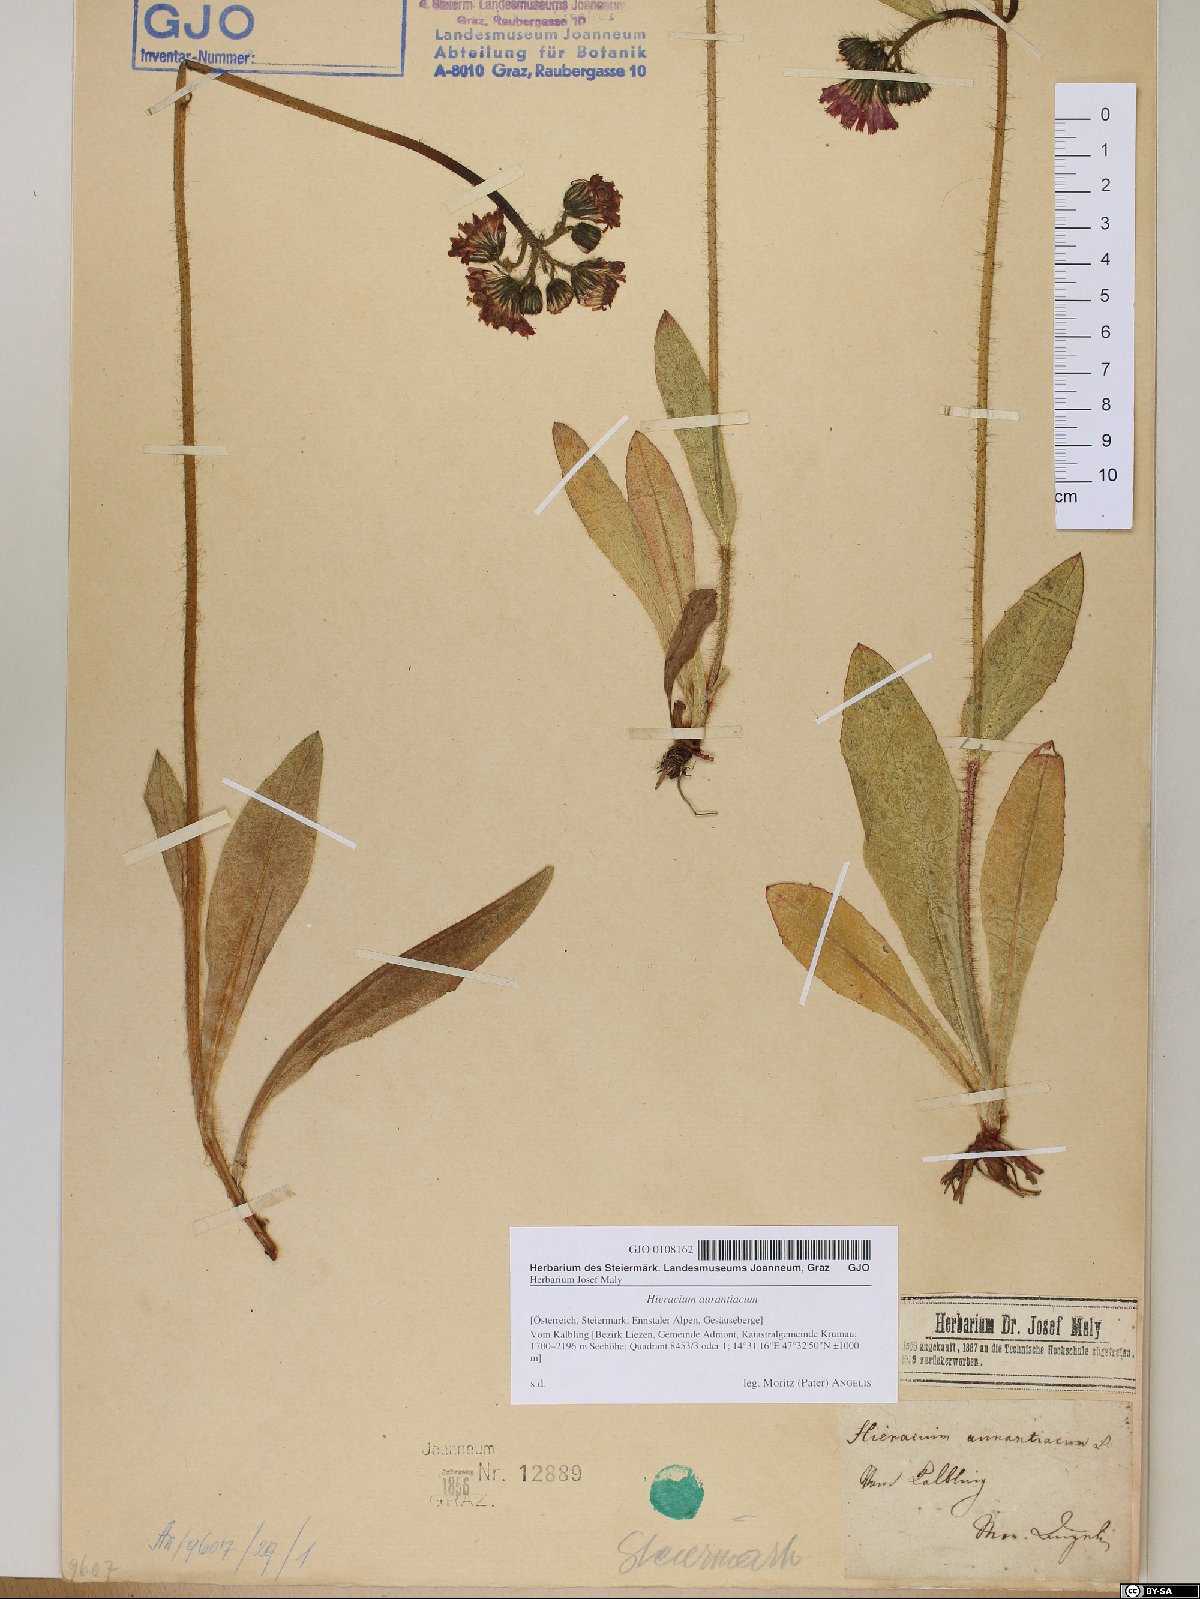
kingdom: Plantae
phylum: Tracheophyta
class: Magnoliopsida
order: Asterales
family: Asteraceae
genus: Pilosella
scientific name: Pilosella aurantiaca
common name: Fox-and-cubs
